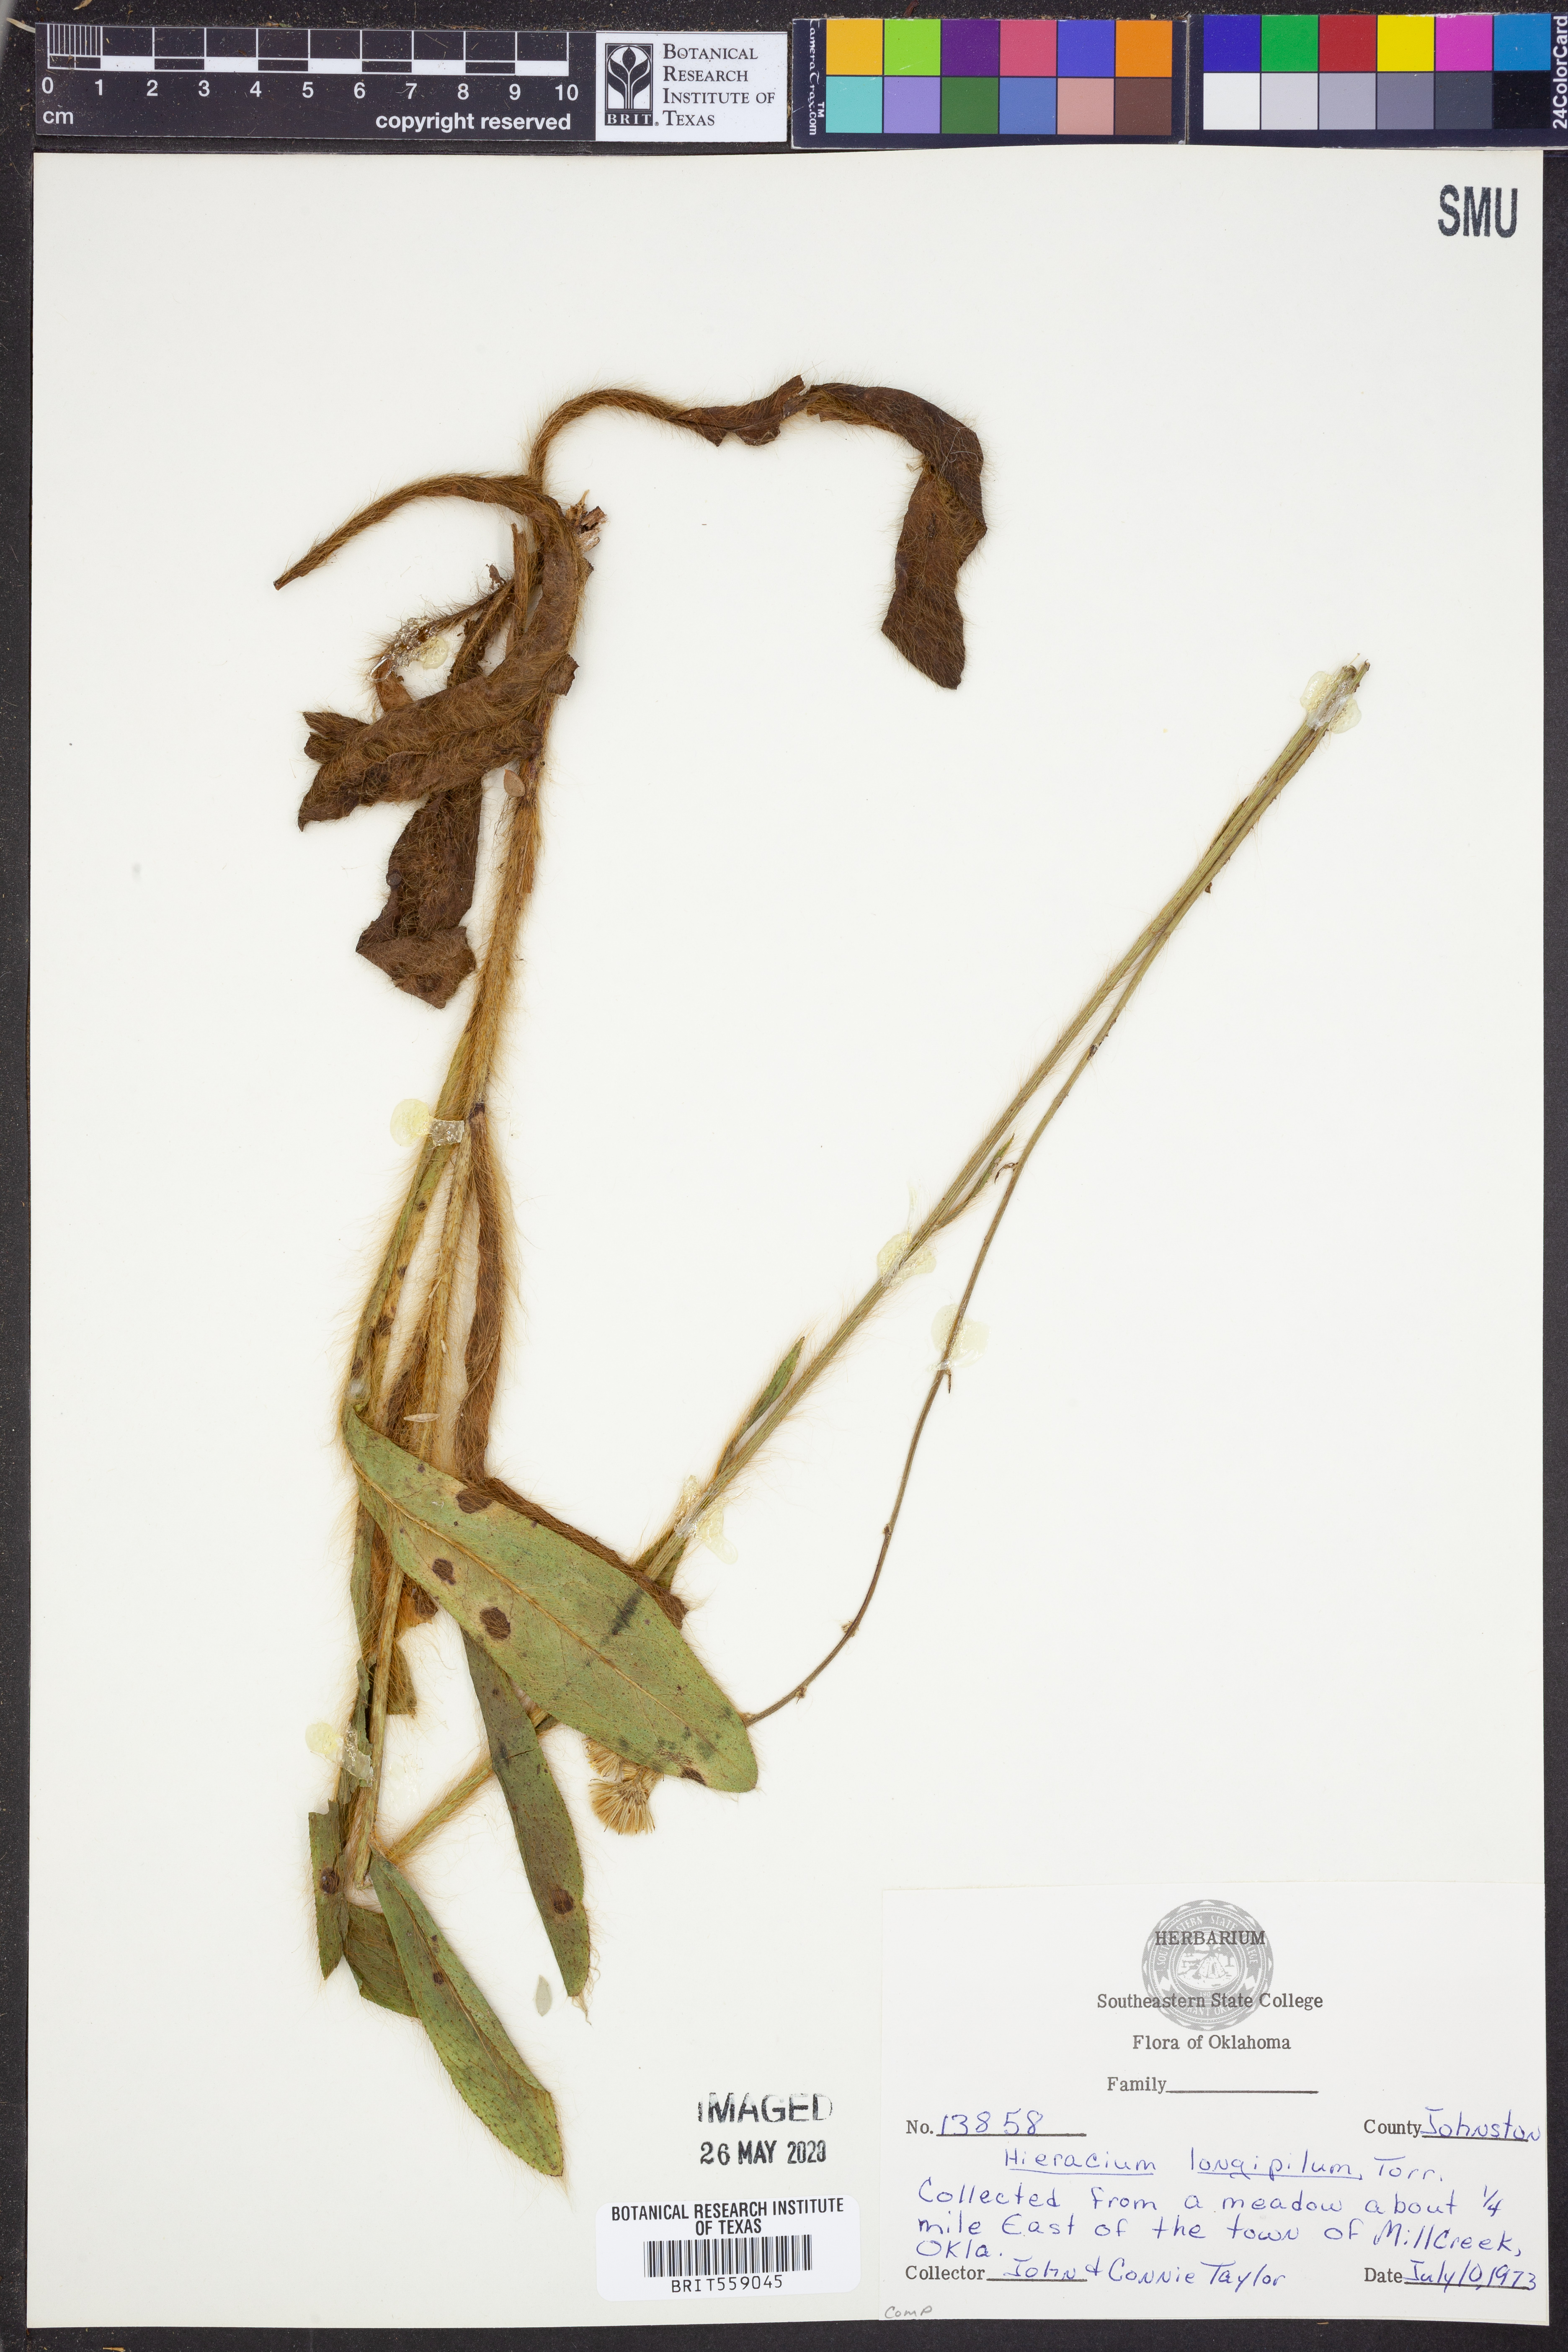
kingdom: Plantae
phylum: Tracheophyta
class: Magnoliopsida
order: Asterales
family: Asteraceae
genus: Hieracium
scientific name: Hieracium longipilum
